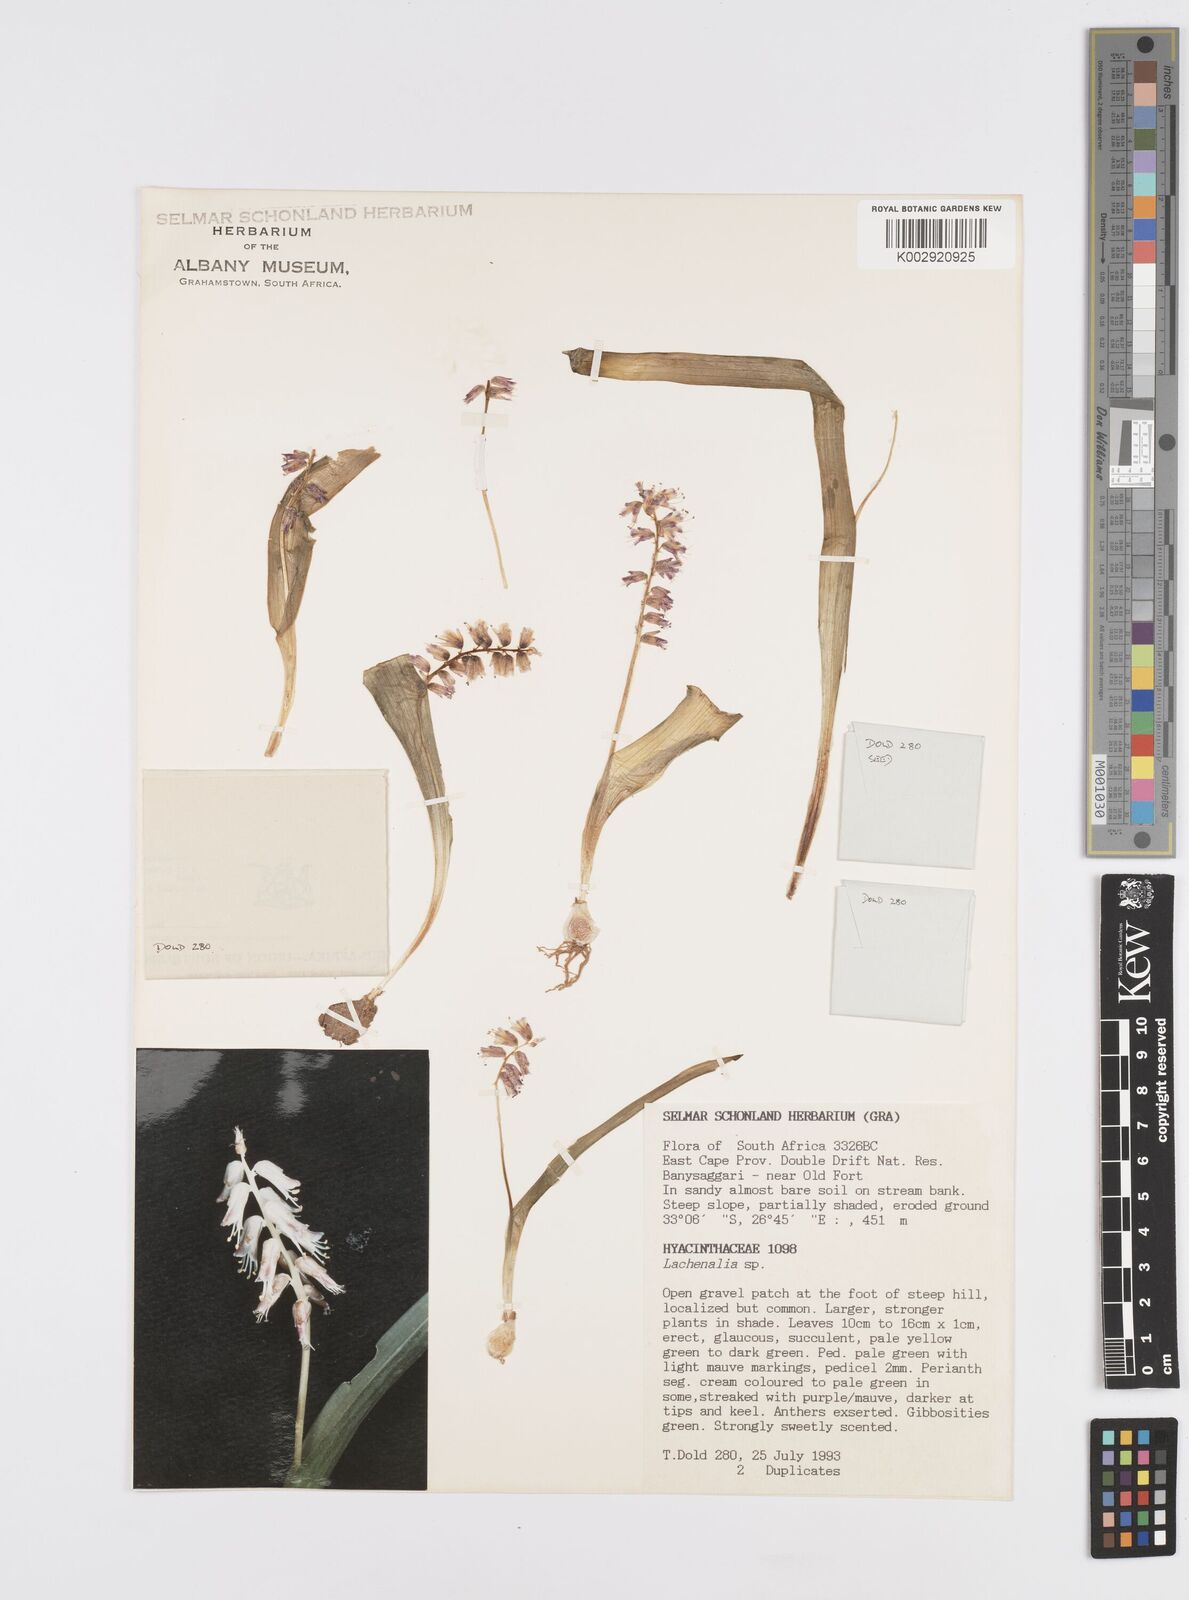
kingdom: Plantae
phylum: Tracheophyta
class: Liliopsida
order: Asparagales
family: Asparagaceae
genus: Lachenalia
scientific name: Lachenalia
